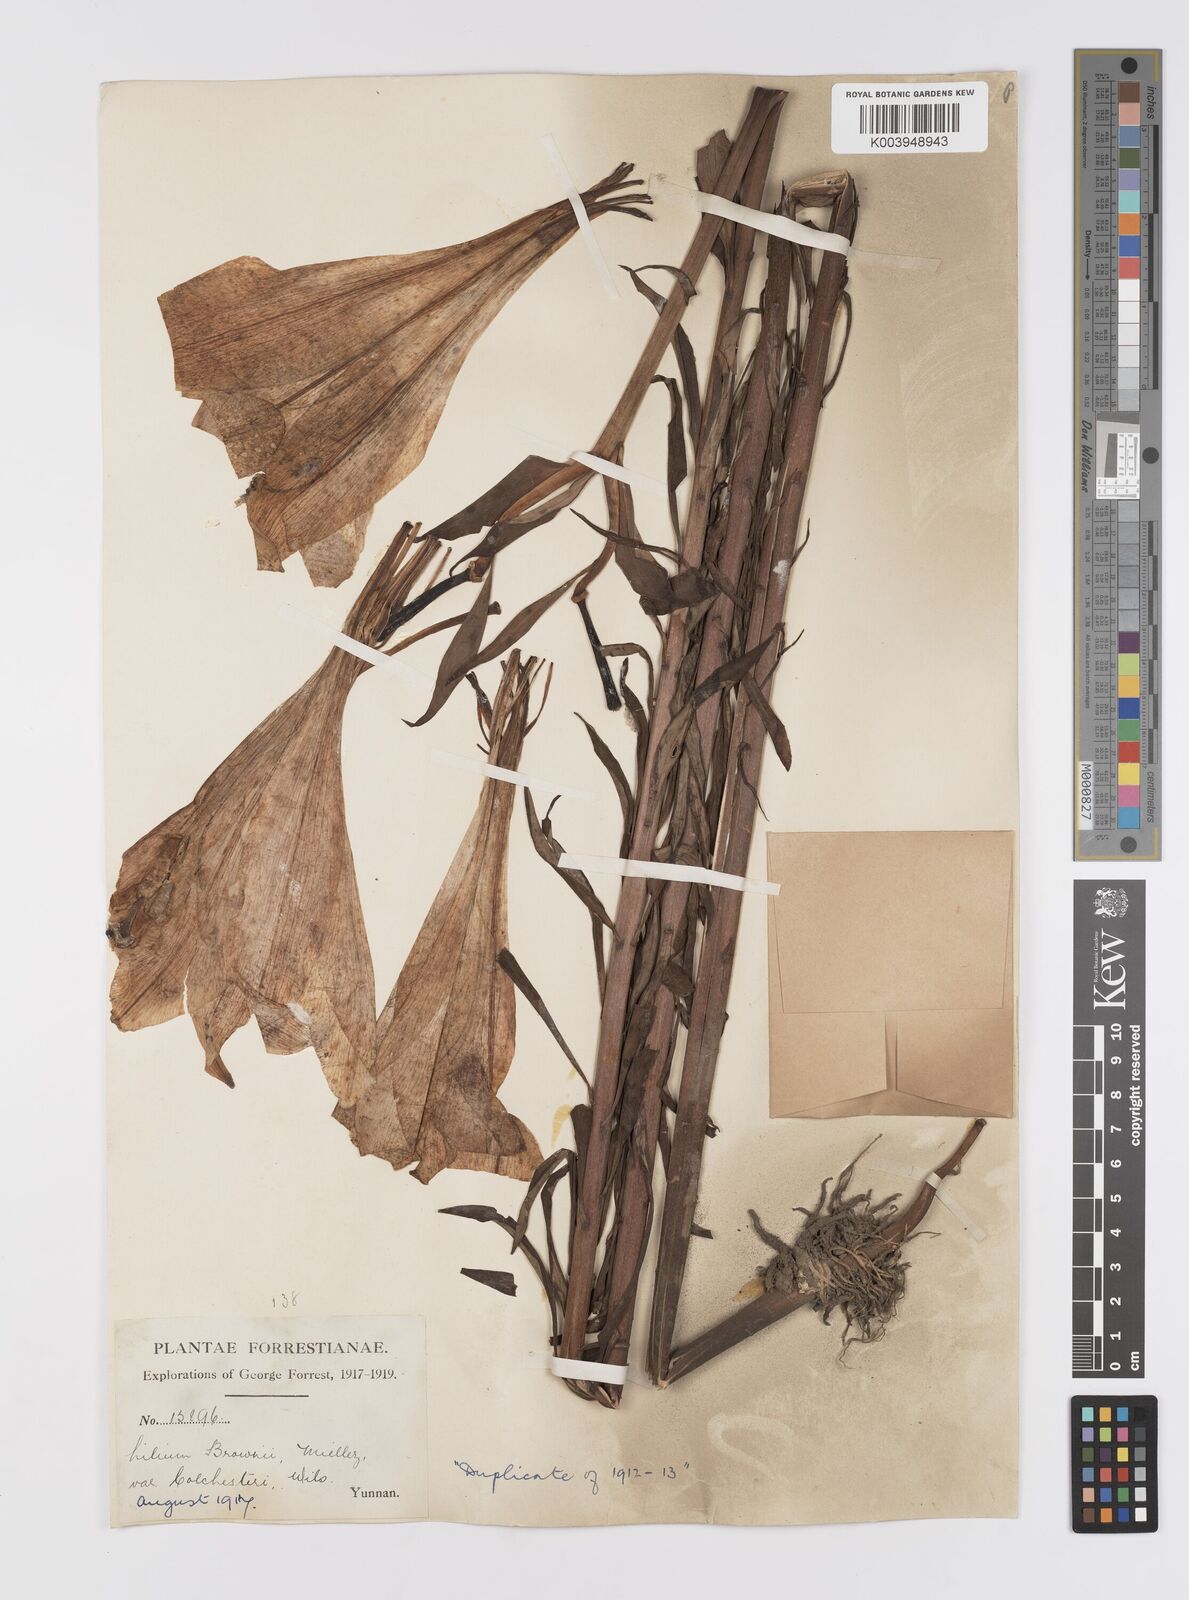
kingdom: Plantae
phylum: Tracheophyta
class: Liliopsida
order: Liliales
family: Liliaceae
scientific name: Liliaceae
